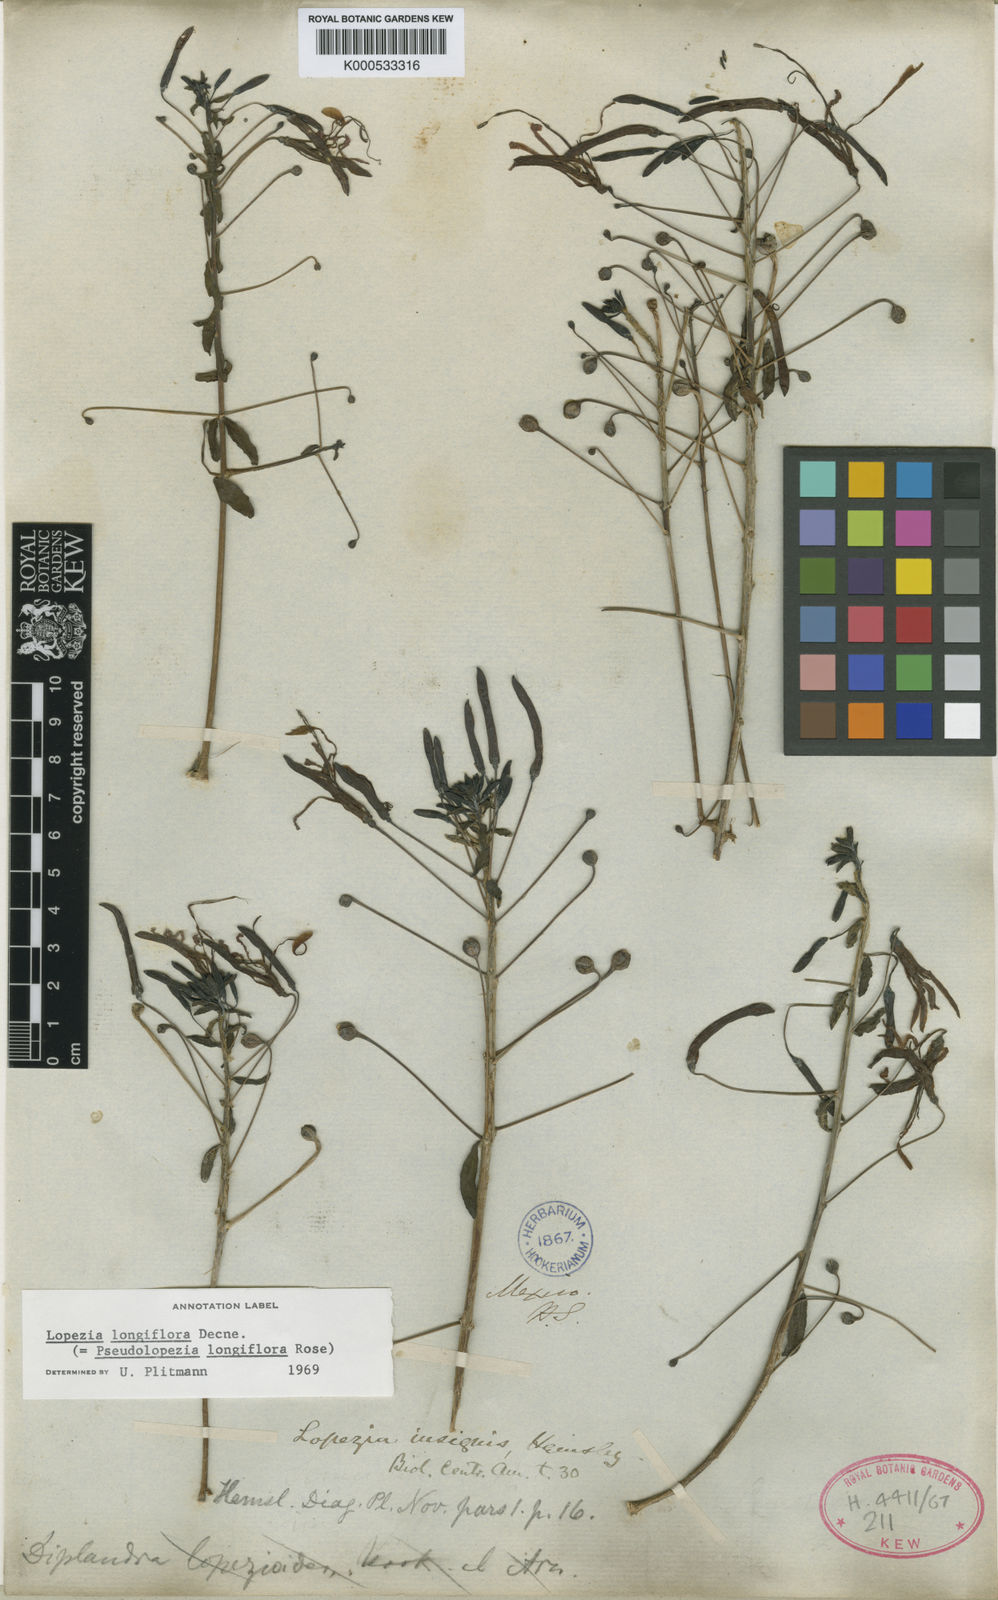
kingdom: Plantae
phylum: Tracheophyta
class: Magnoliopsida
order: Myrtales
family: Onagraceae
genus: Lopezia
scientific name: Lopezia lopezioides
